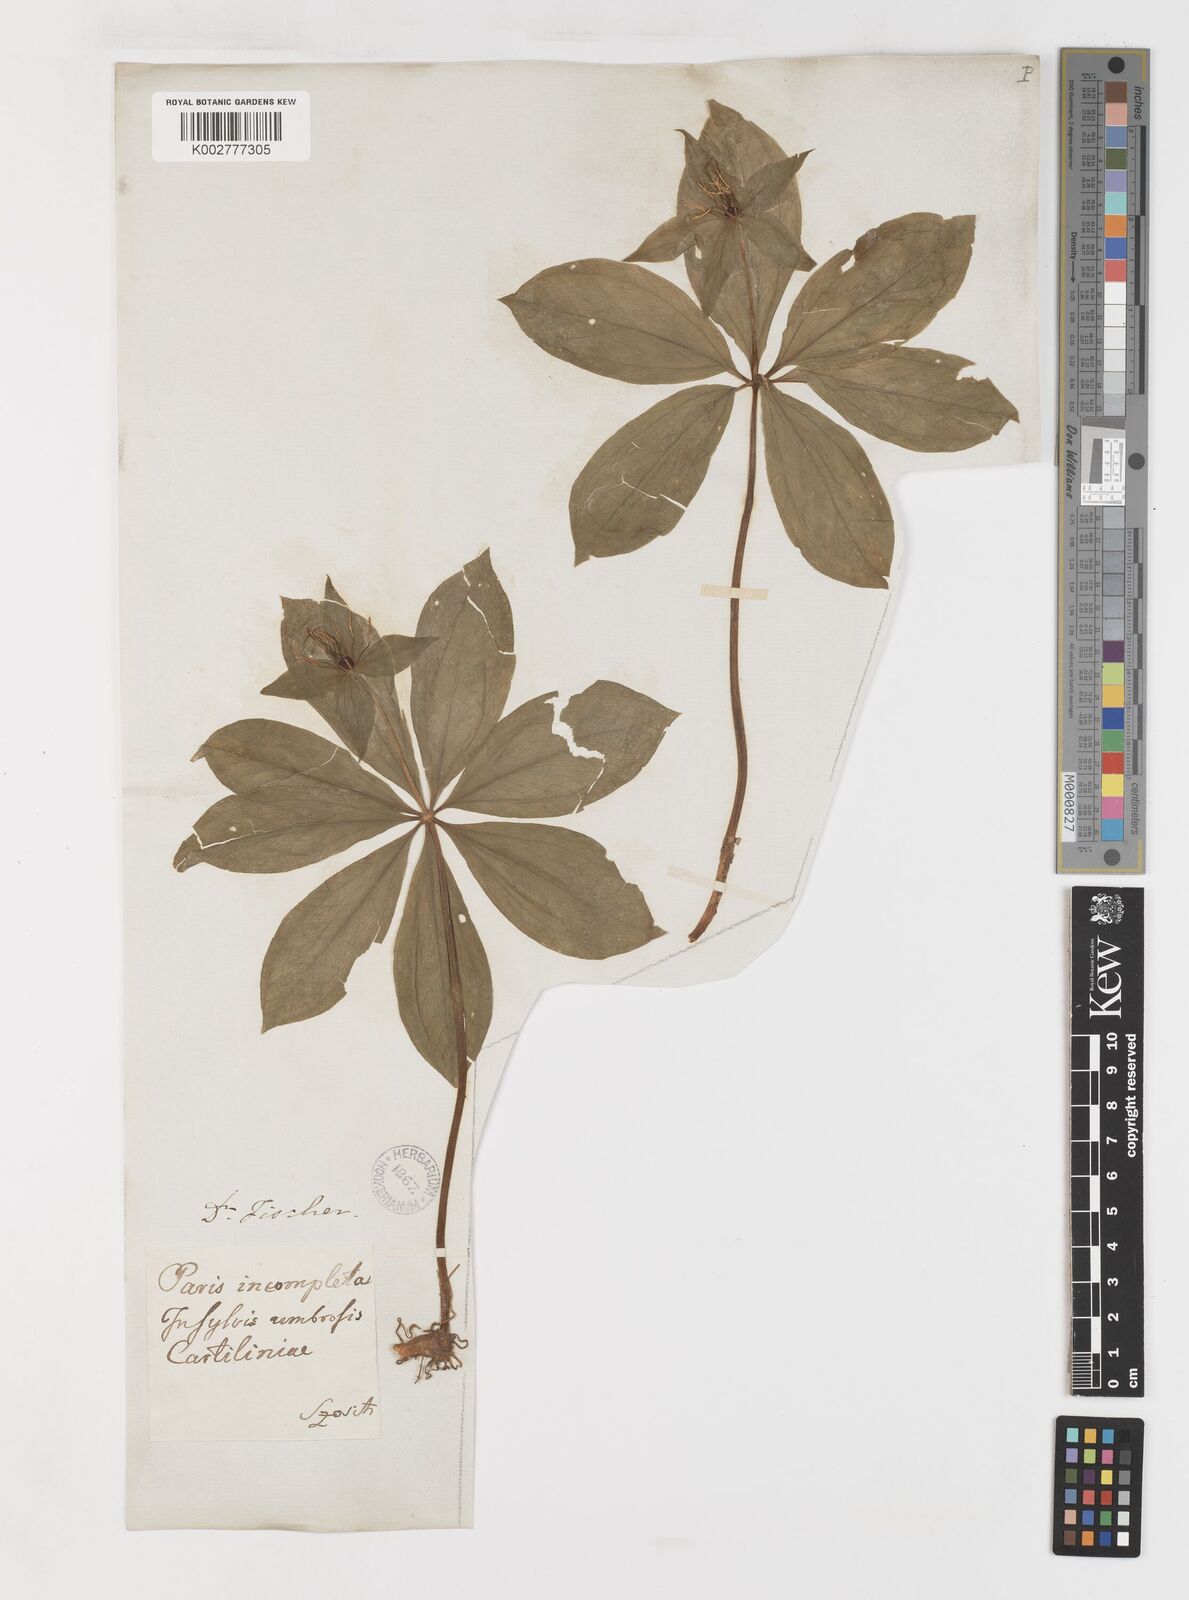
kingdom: Plantae
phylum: Tracheophyta
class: Liliopsida
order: Liliales
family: Melanthiaceae
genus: Paris
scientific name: Paris incompleta
